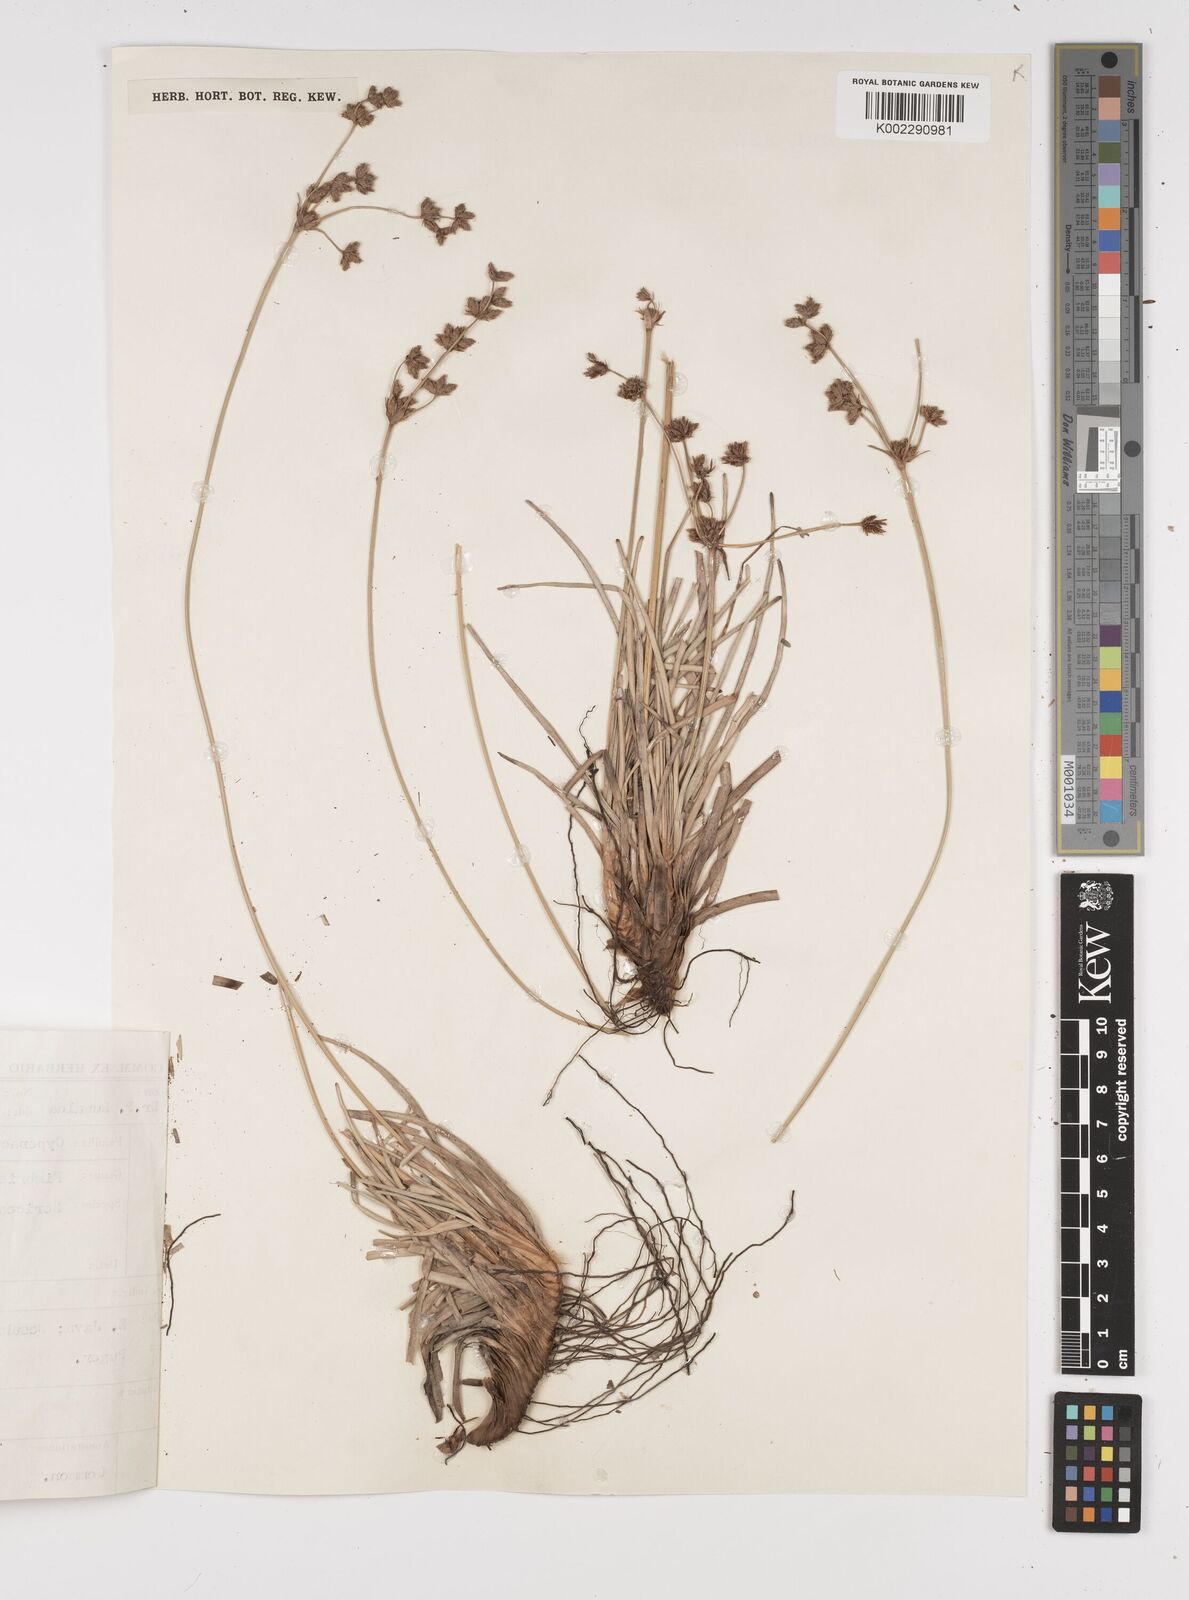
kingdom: Plantae
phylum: Tracheophyta
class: Liliopsida
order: Poales
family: Cyperaceae
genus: Fimbristylis
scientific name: Fimbristylis sericea
